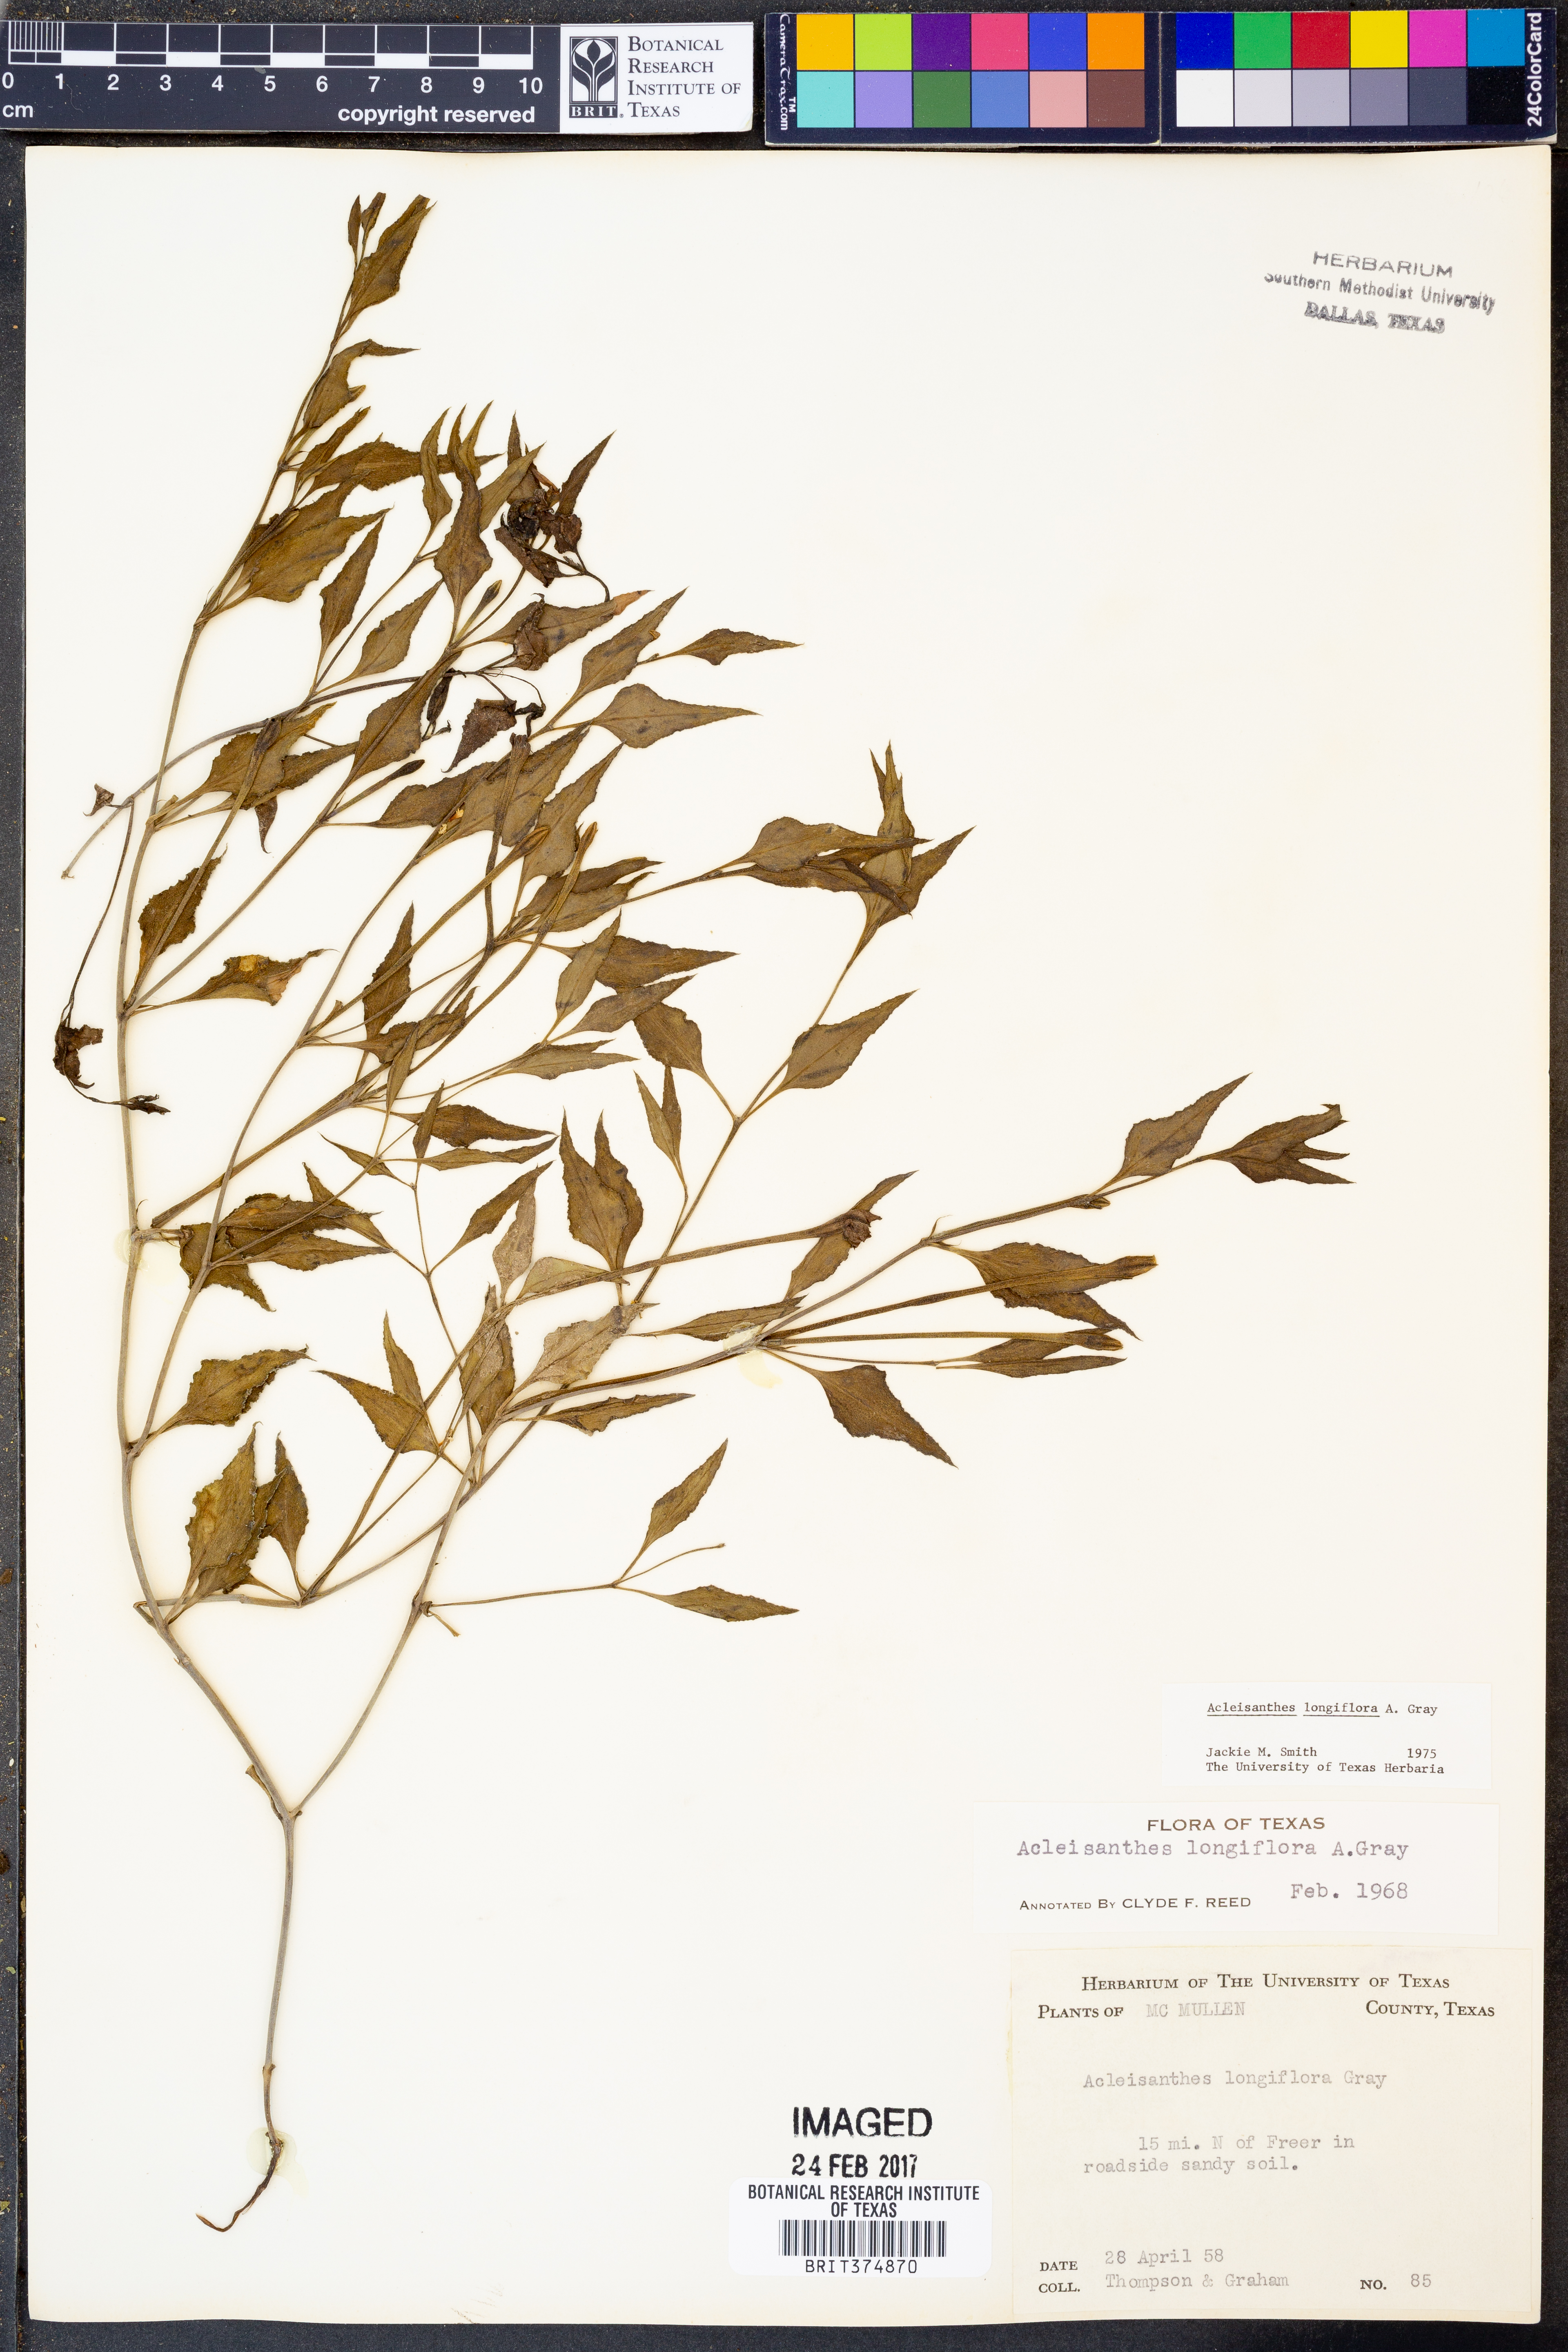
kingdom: Plantae
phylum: Tracheophyta
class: Magnoliopsida
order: Caryophyllales
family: Nyctaginaceae
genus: Acleisanthes
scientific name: Acleisanthes longiflora
